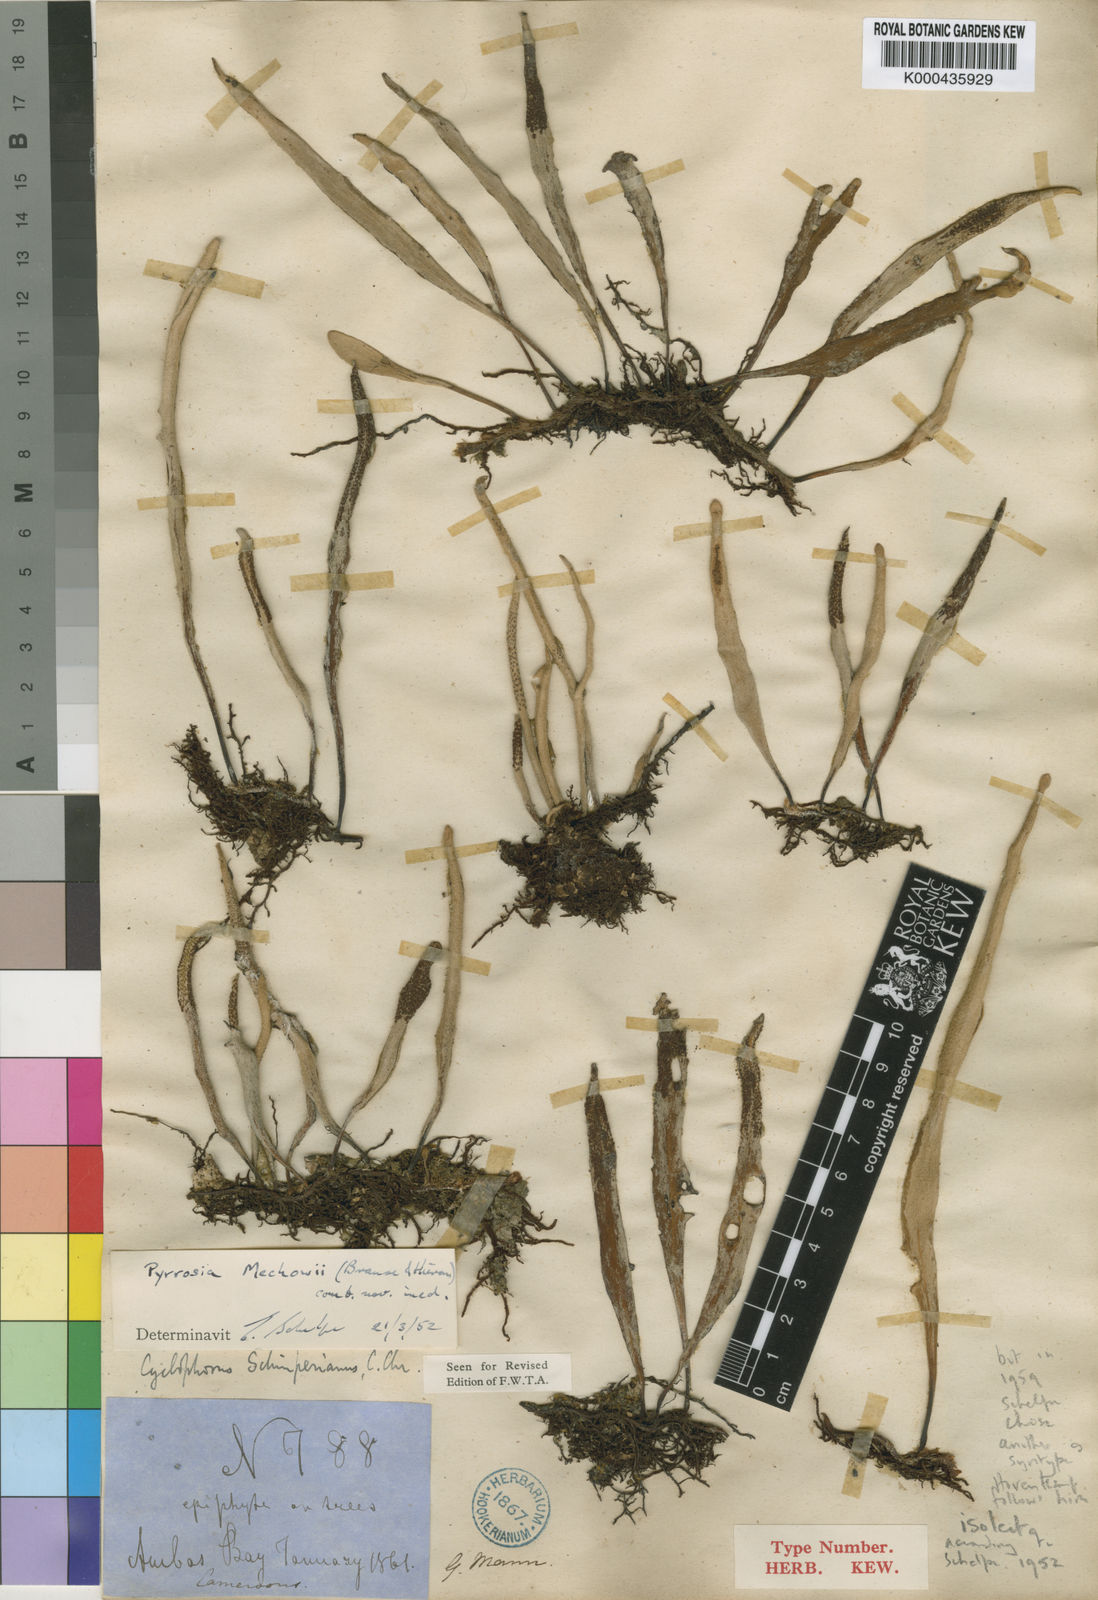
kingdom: Plantae
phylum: Tracheophyta
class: Polypodiopsida
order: Polypodiales
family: Polypodiaceae
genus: Pyrrosia
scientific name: Pyrrosia
